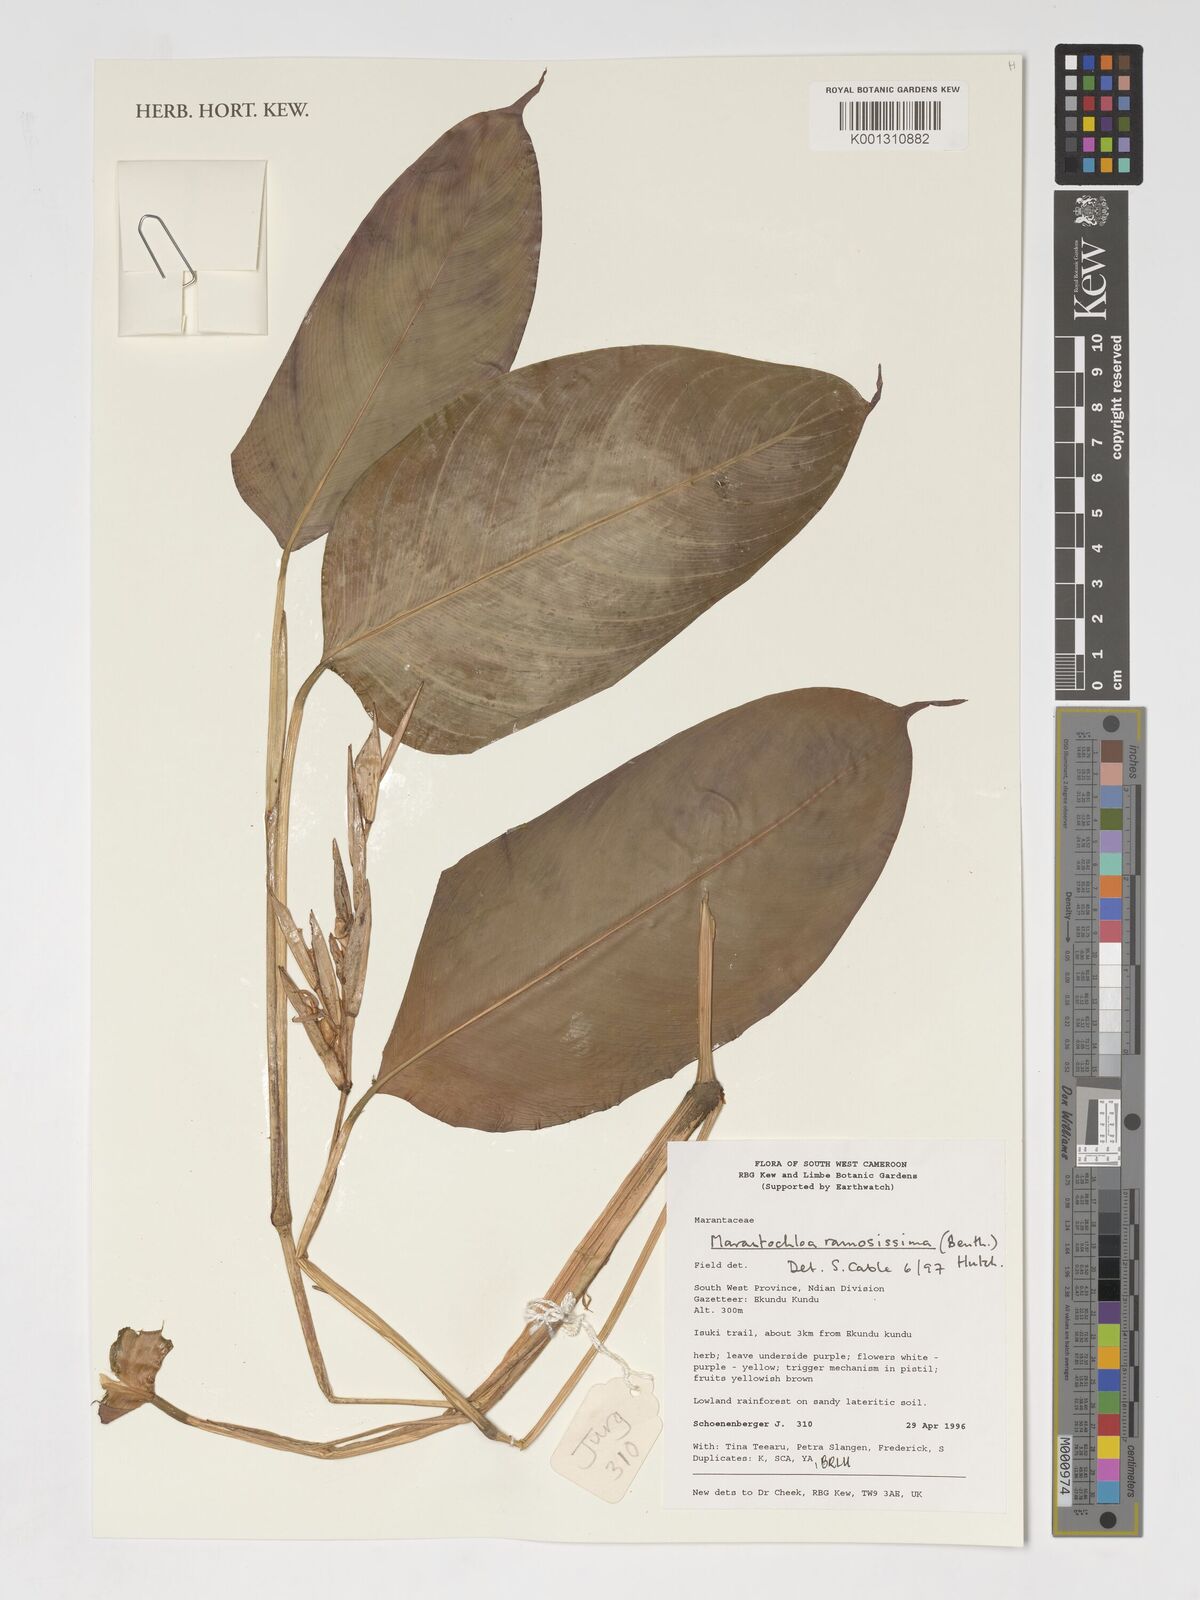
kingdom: Plantae
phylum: Tracheophyta
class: Liliopsida
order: Zingiberales
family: Marantaceae
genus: Marantochloa
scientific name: Marantochloa ramosissima
